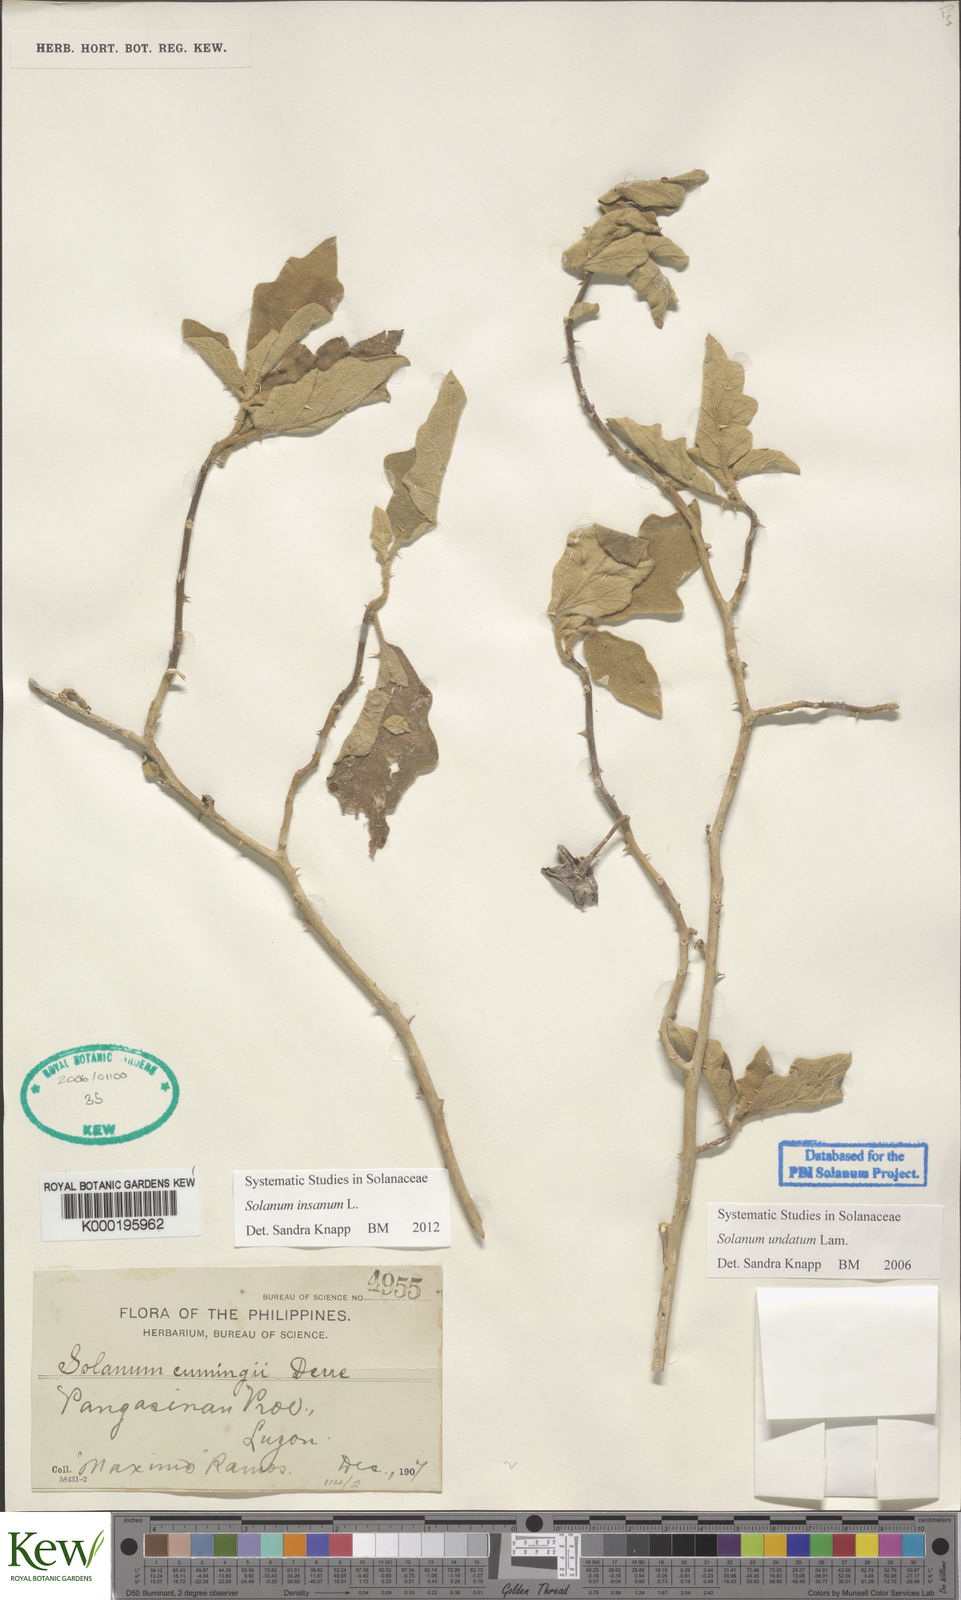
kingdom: Plantae
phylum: Tracheophyta
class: Magnoliopsida
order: Solanales
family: Solanaceae
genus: Solanum
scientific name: Solanum insanum
